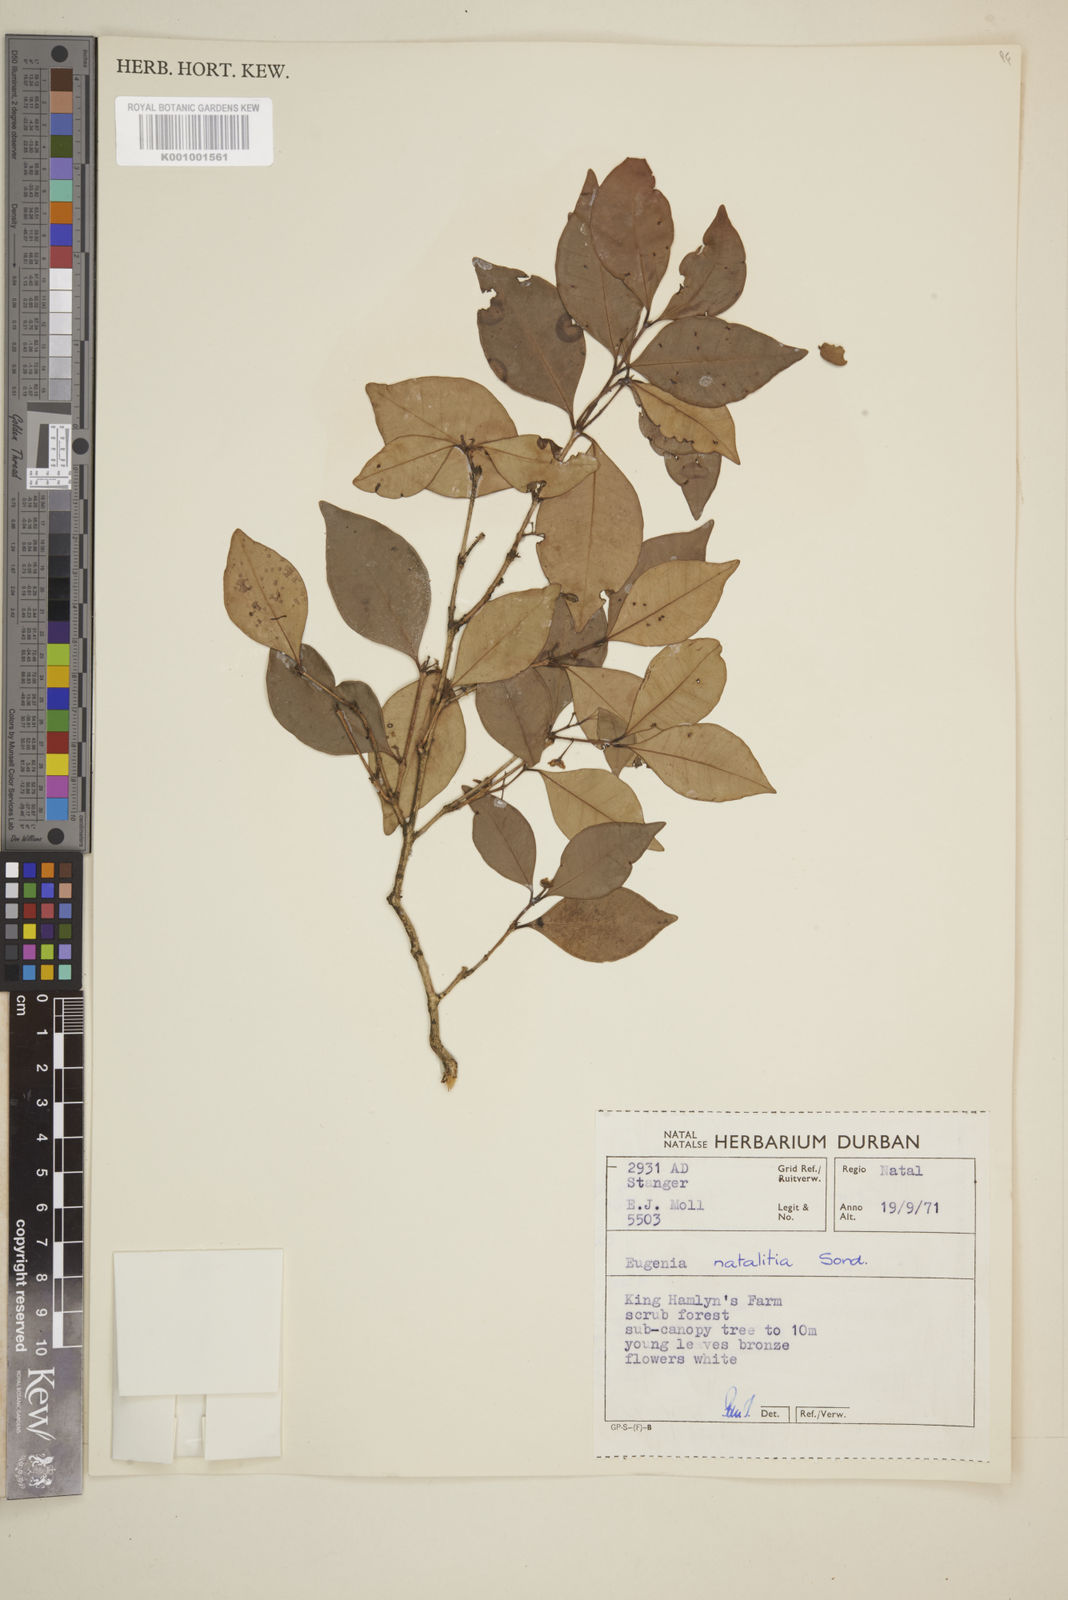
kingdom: Plantae
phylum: Tracheophyta
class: Magnoliopsida
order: Myrtales
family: Myrtaceae
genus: Eugenia
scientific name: Eugenia natalitia
